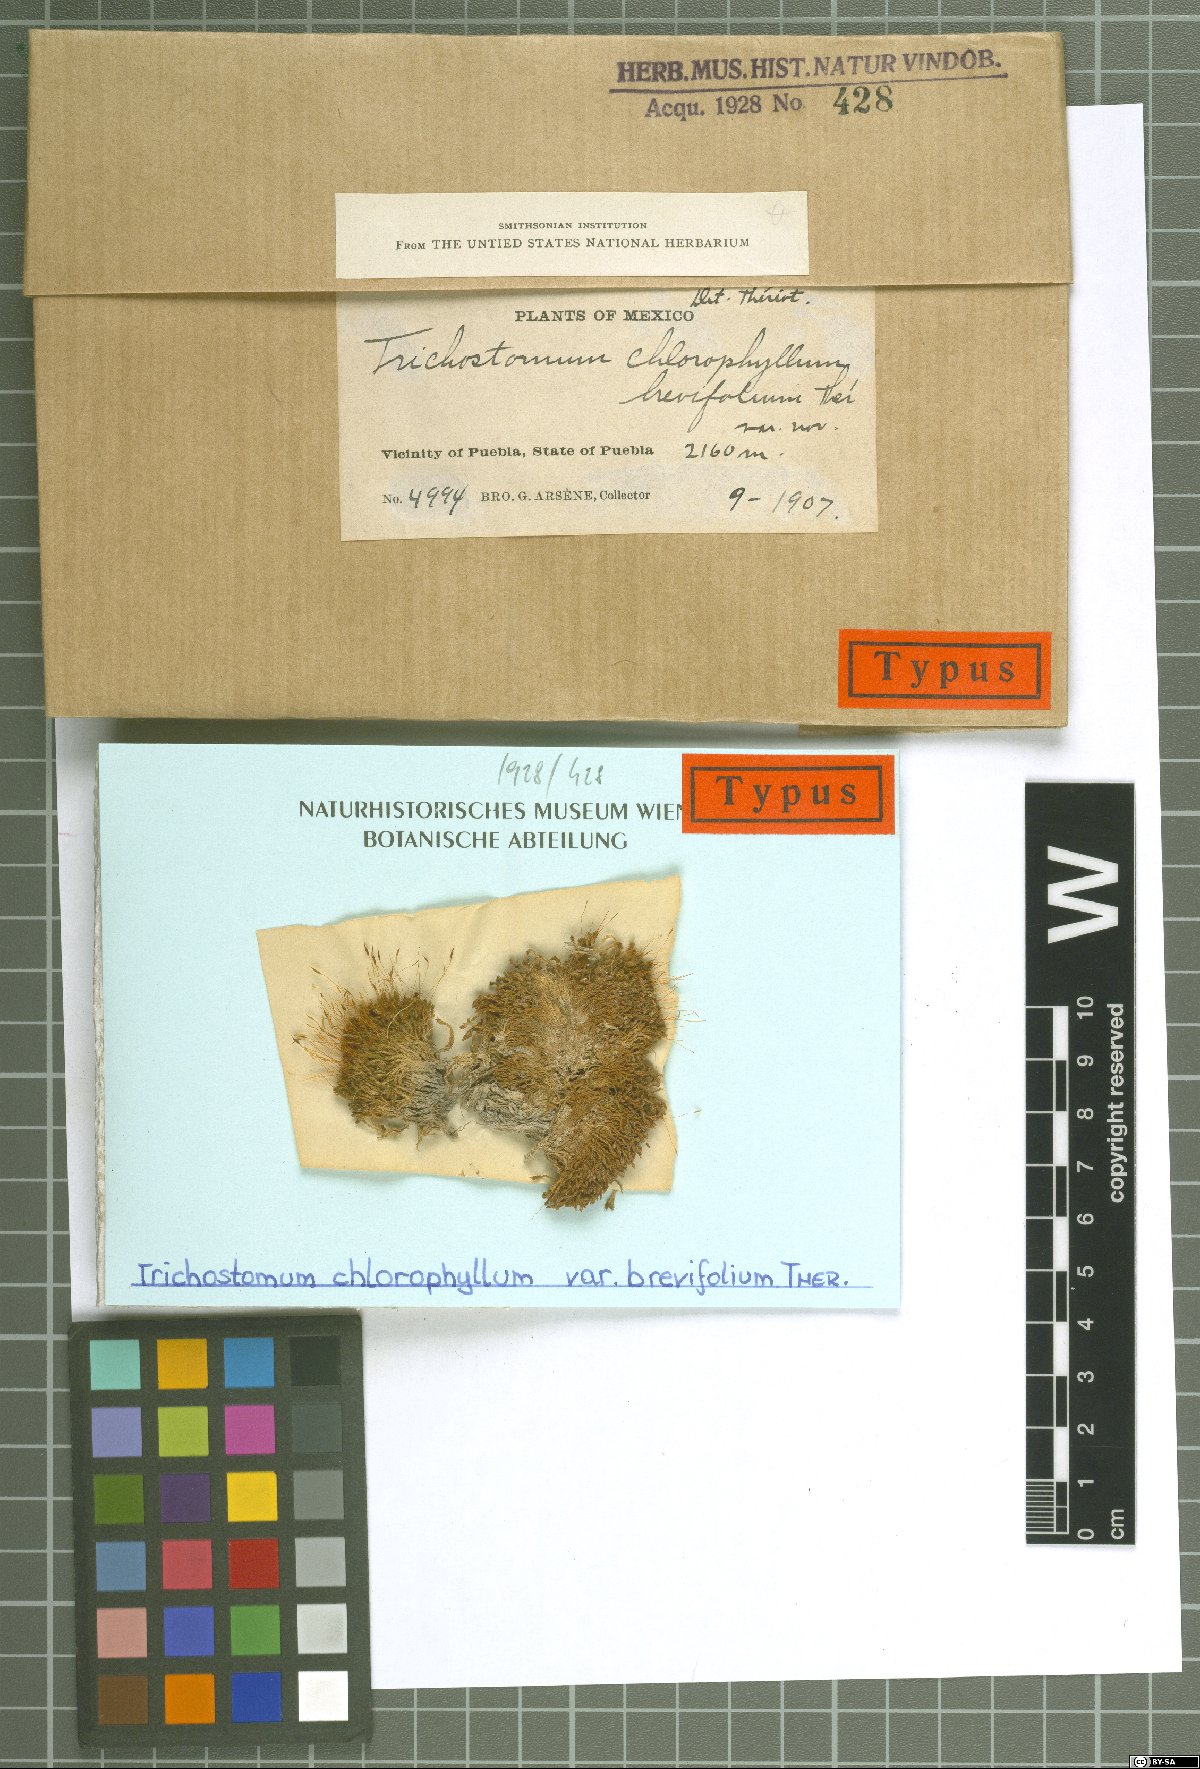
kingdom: Plantae
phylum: Bryophyta
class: Bryopsida
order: Pottiales
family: Pottiaceae
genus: Trichostomum
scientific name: Trichostomum crispulum
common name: Curly crisp-moss
